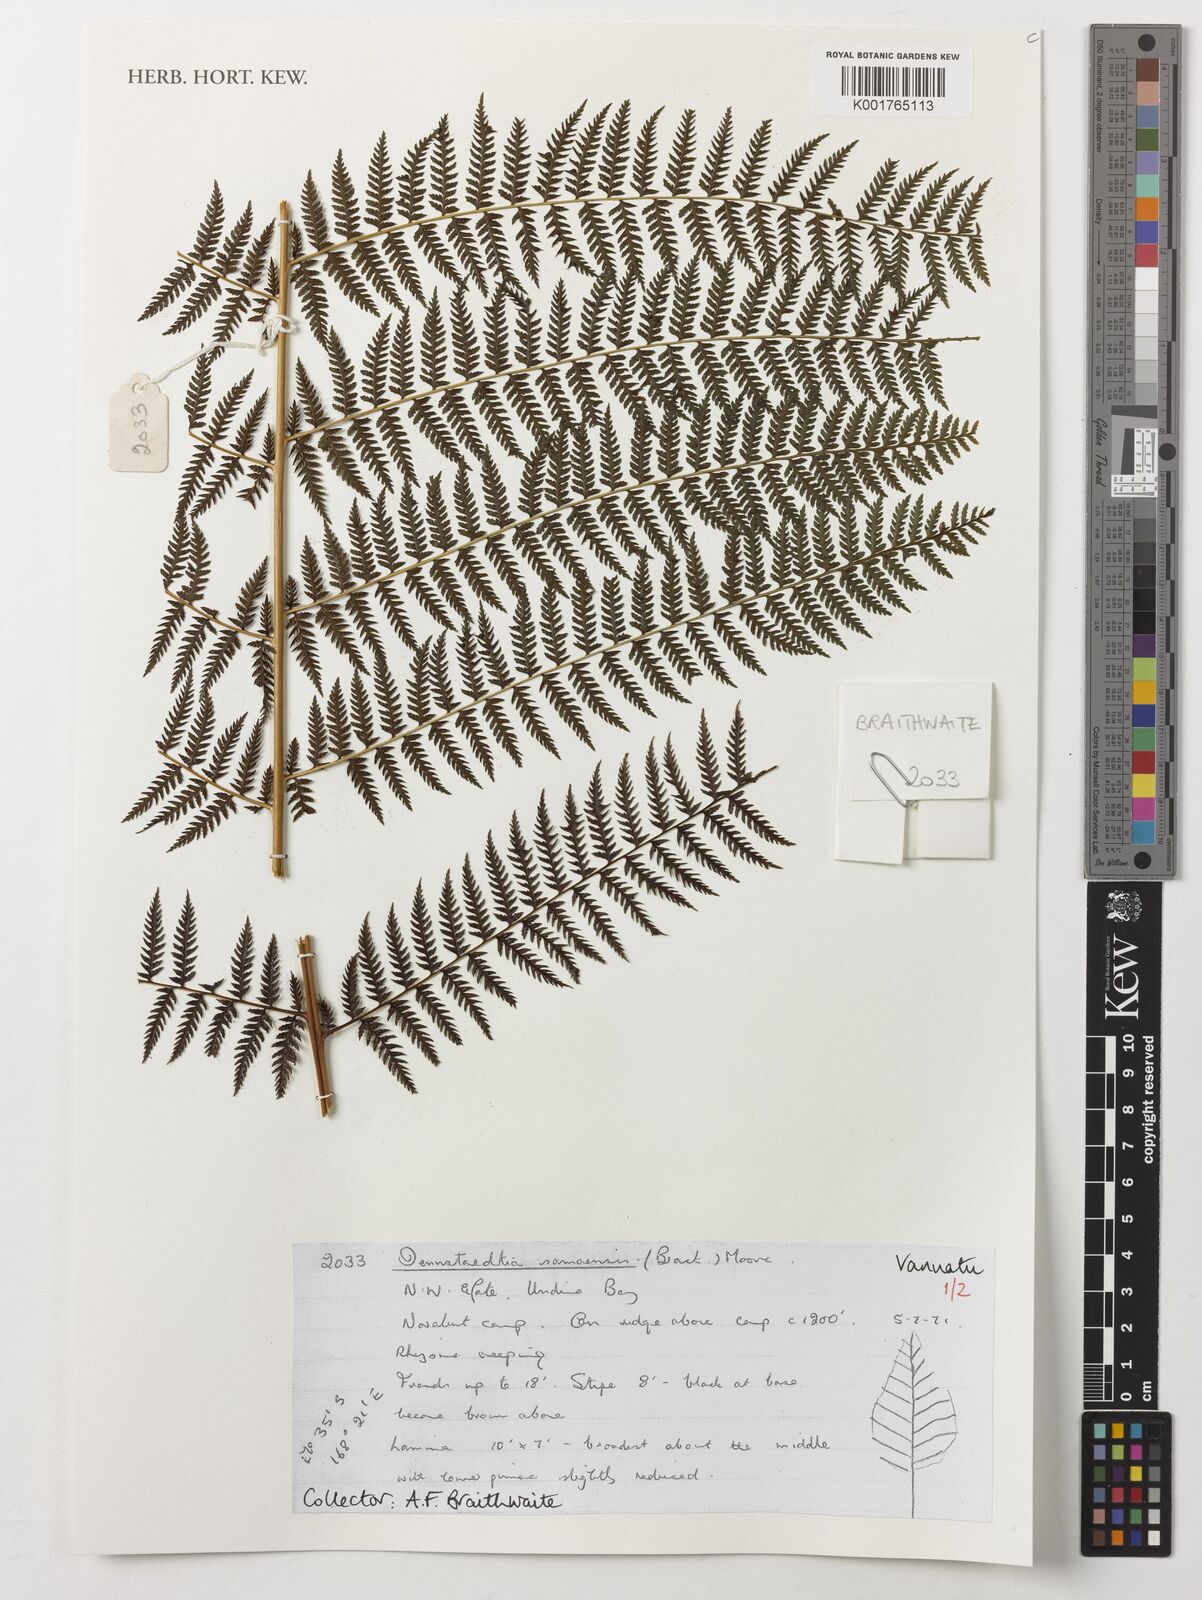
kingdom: Plantae
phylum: Tracheophyta
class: Polypodiopsida
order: Polypodiales
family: Dennstaedtiaceae
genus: Dennstaedtia
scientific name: Dennstaedtia samoensis
